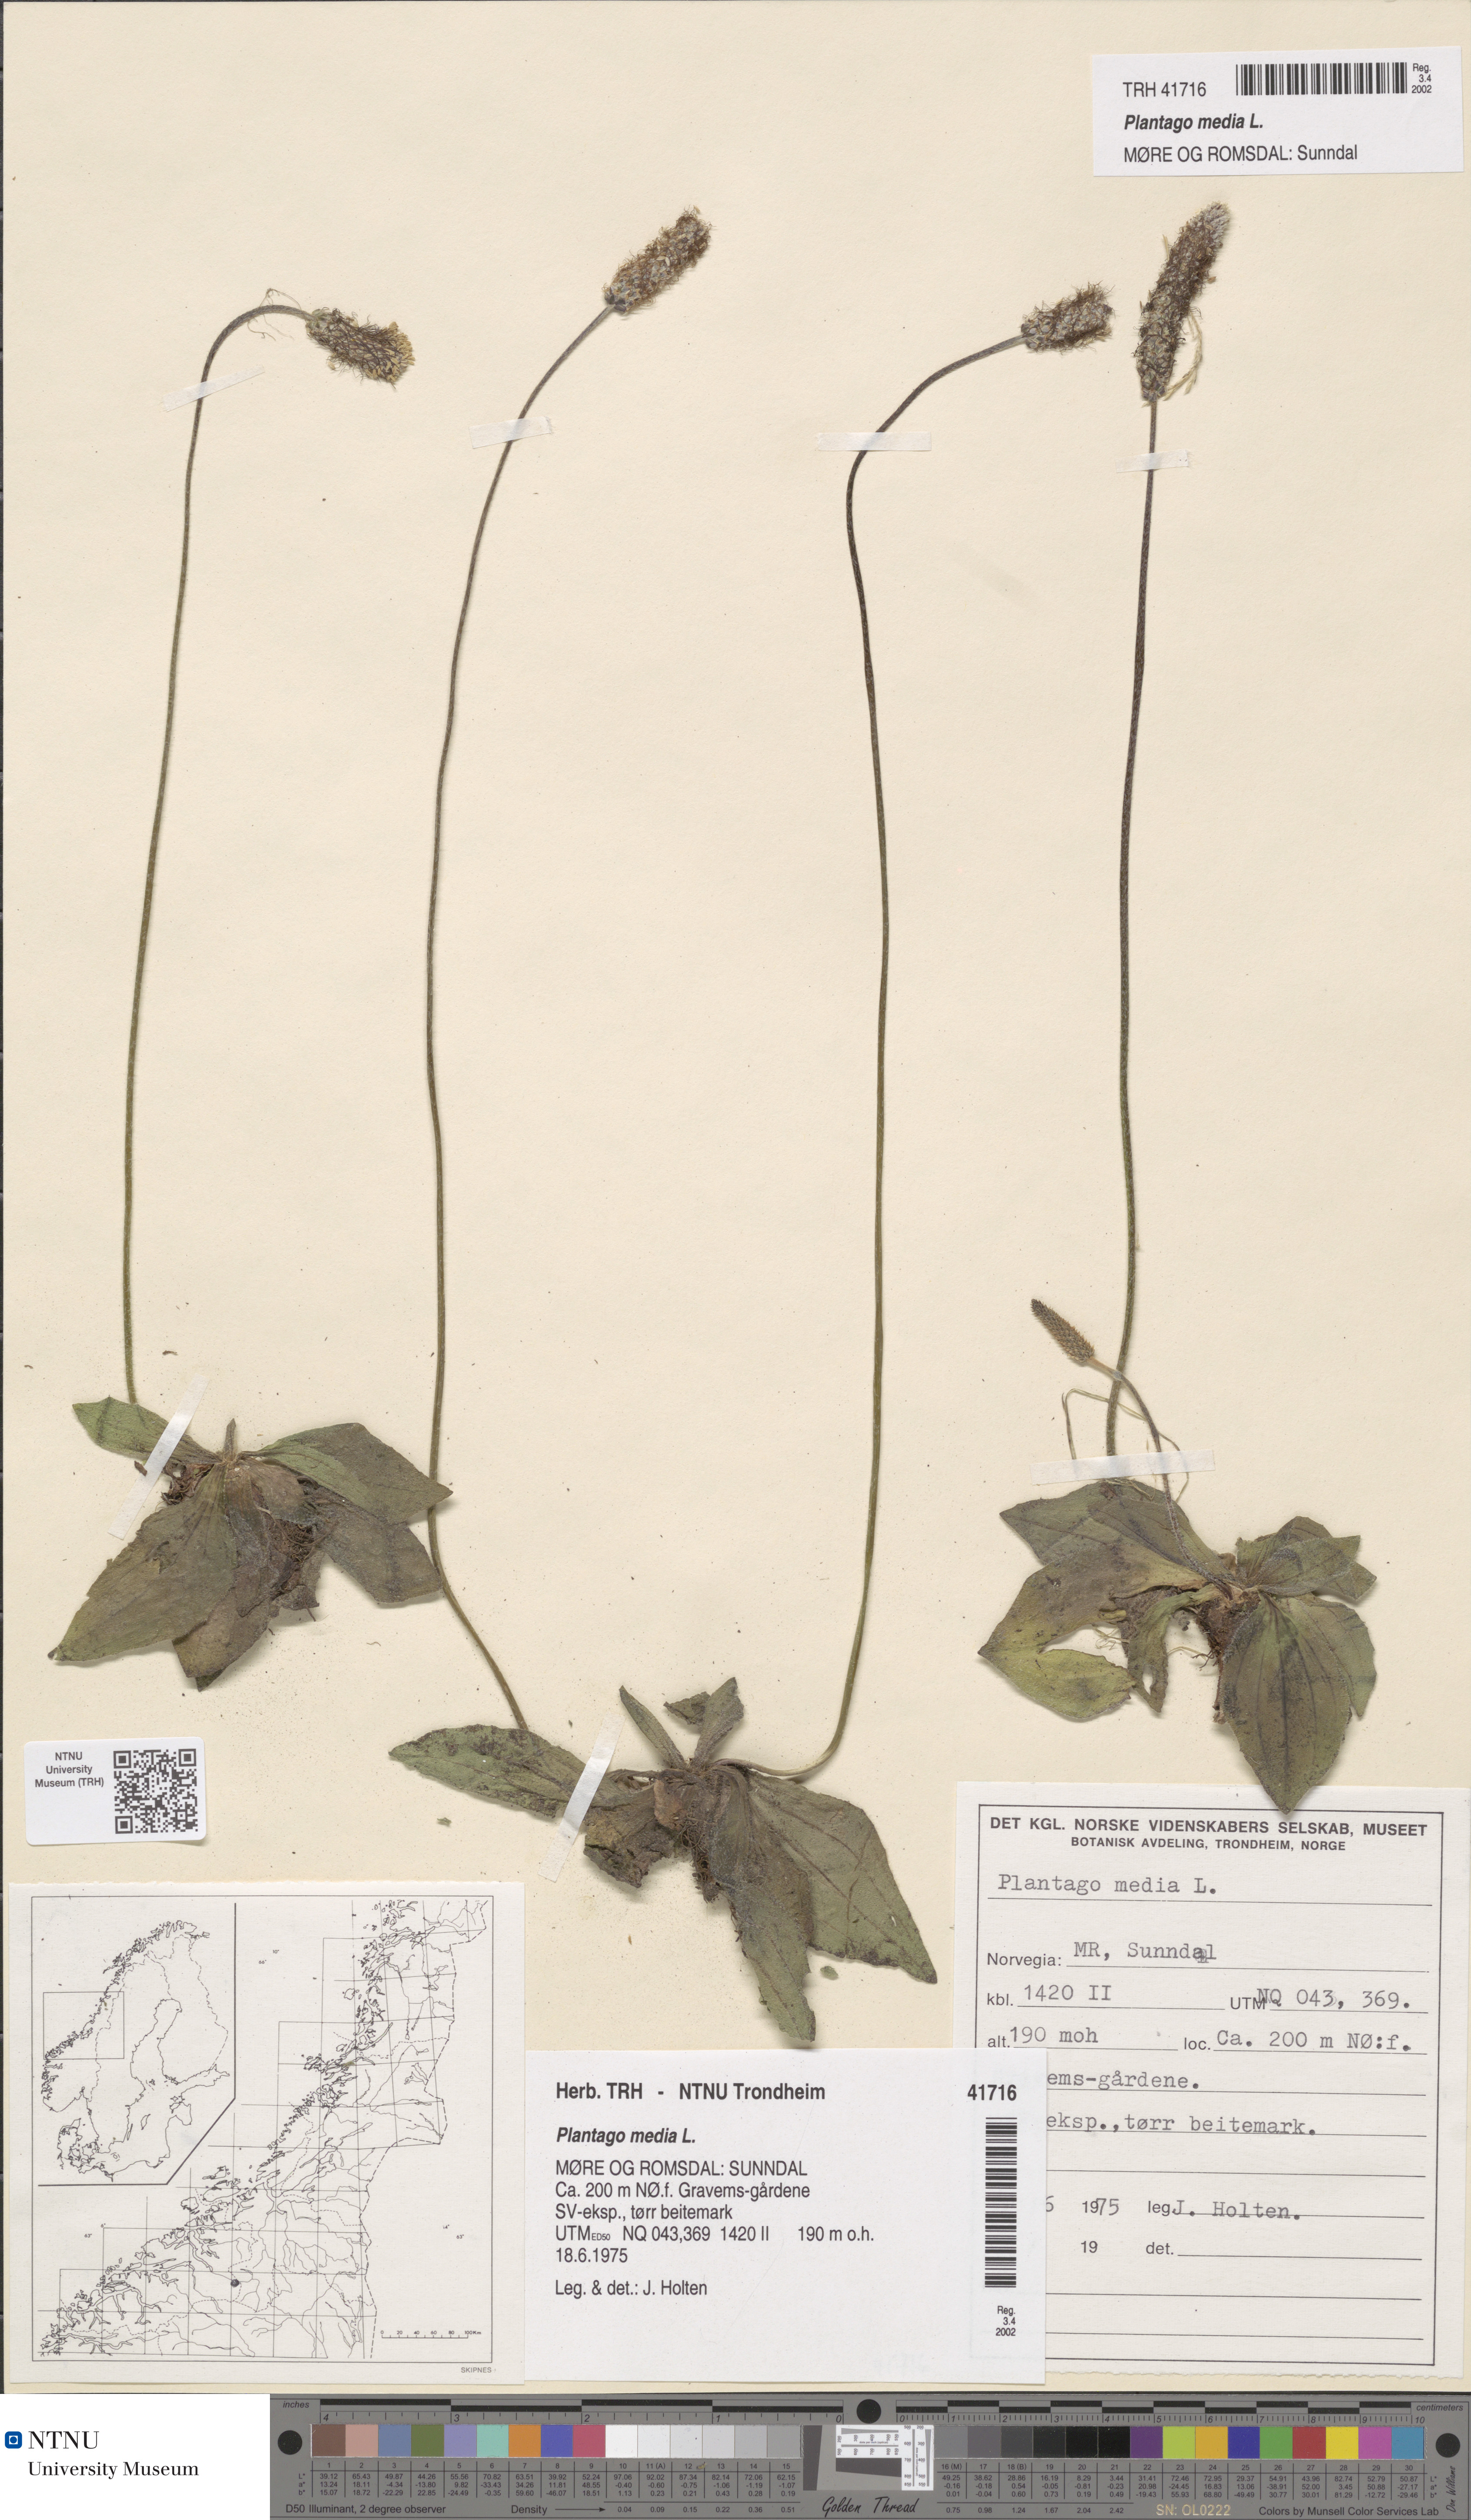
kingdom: Plantae
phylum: Tracheophyta
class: Magnoliopsida
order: Lamiales
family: Plantaginaceae
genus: Plantago
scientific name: Plantago media
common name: Hoary plantain
